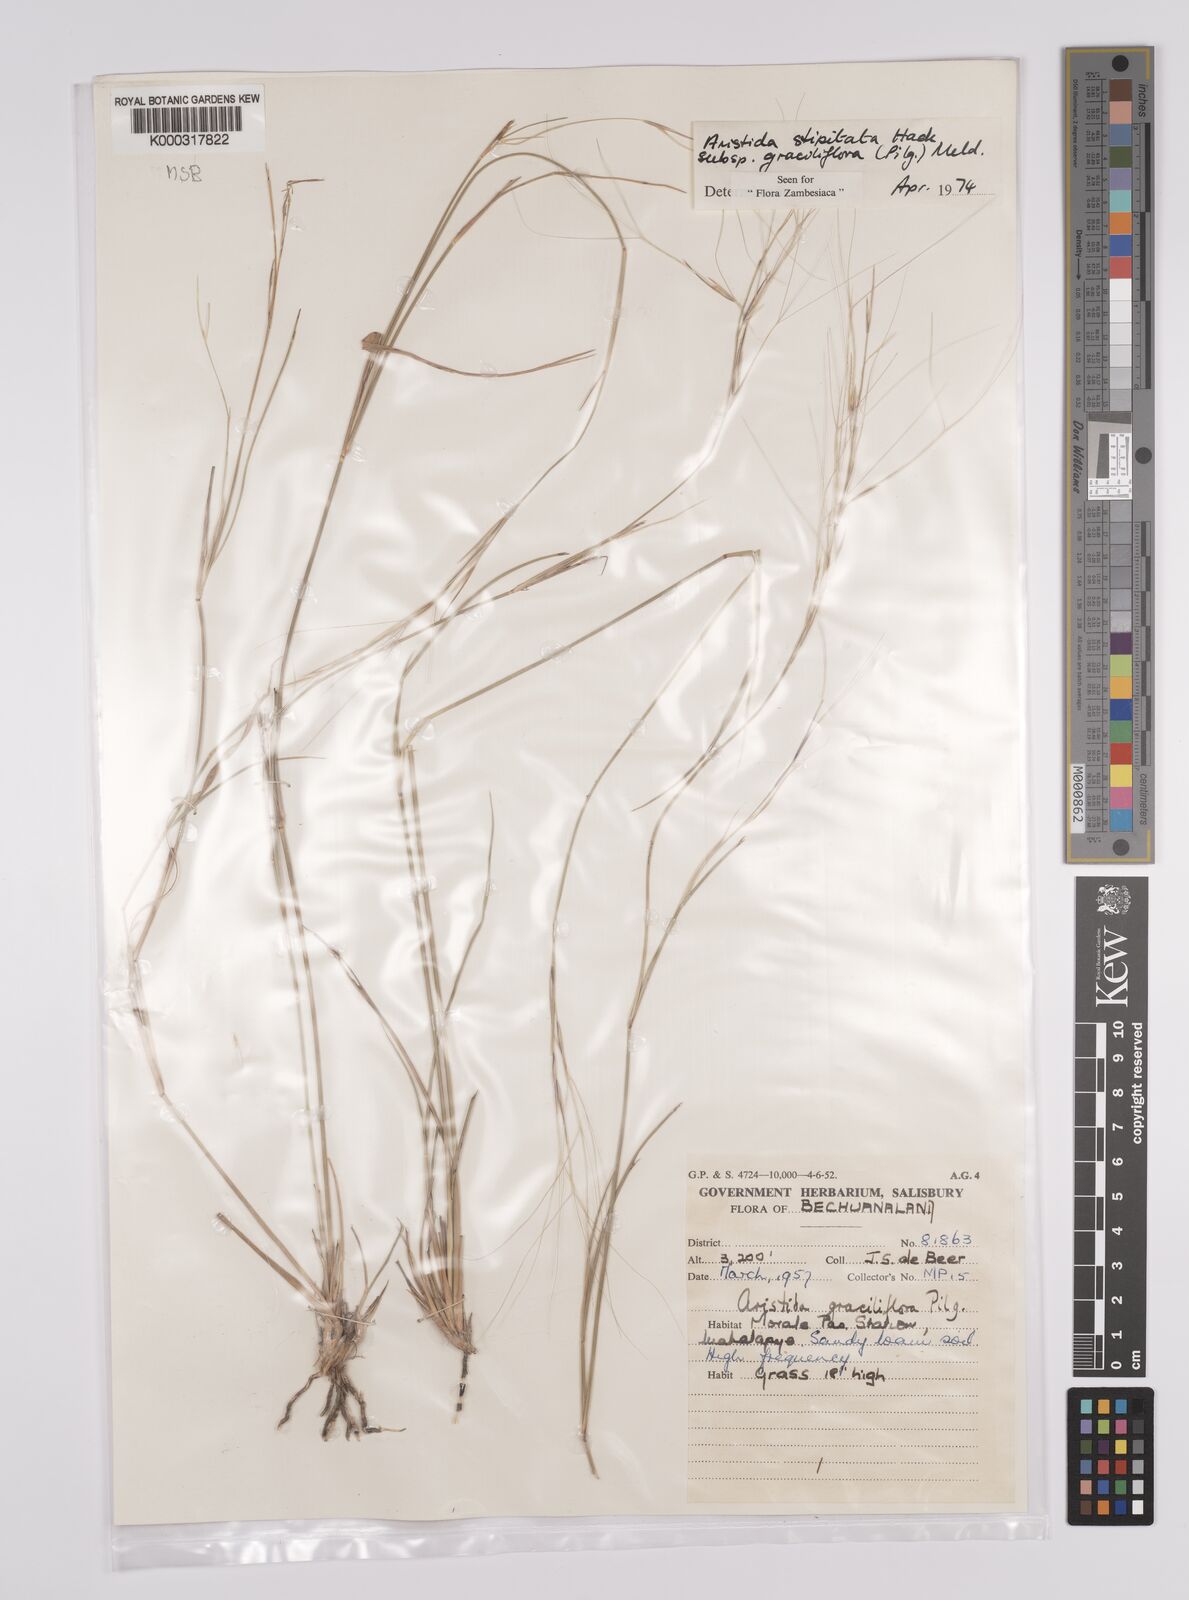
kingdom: Plantae
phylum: Tracheophyta
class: Liliopsida
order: Poales
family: Poaceae
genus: Aristida
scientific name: Aristida stipitata
